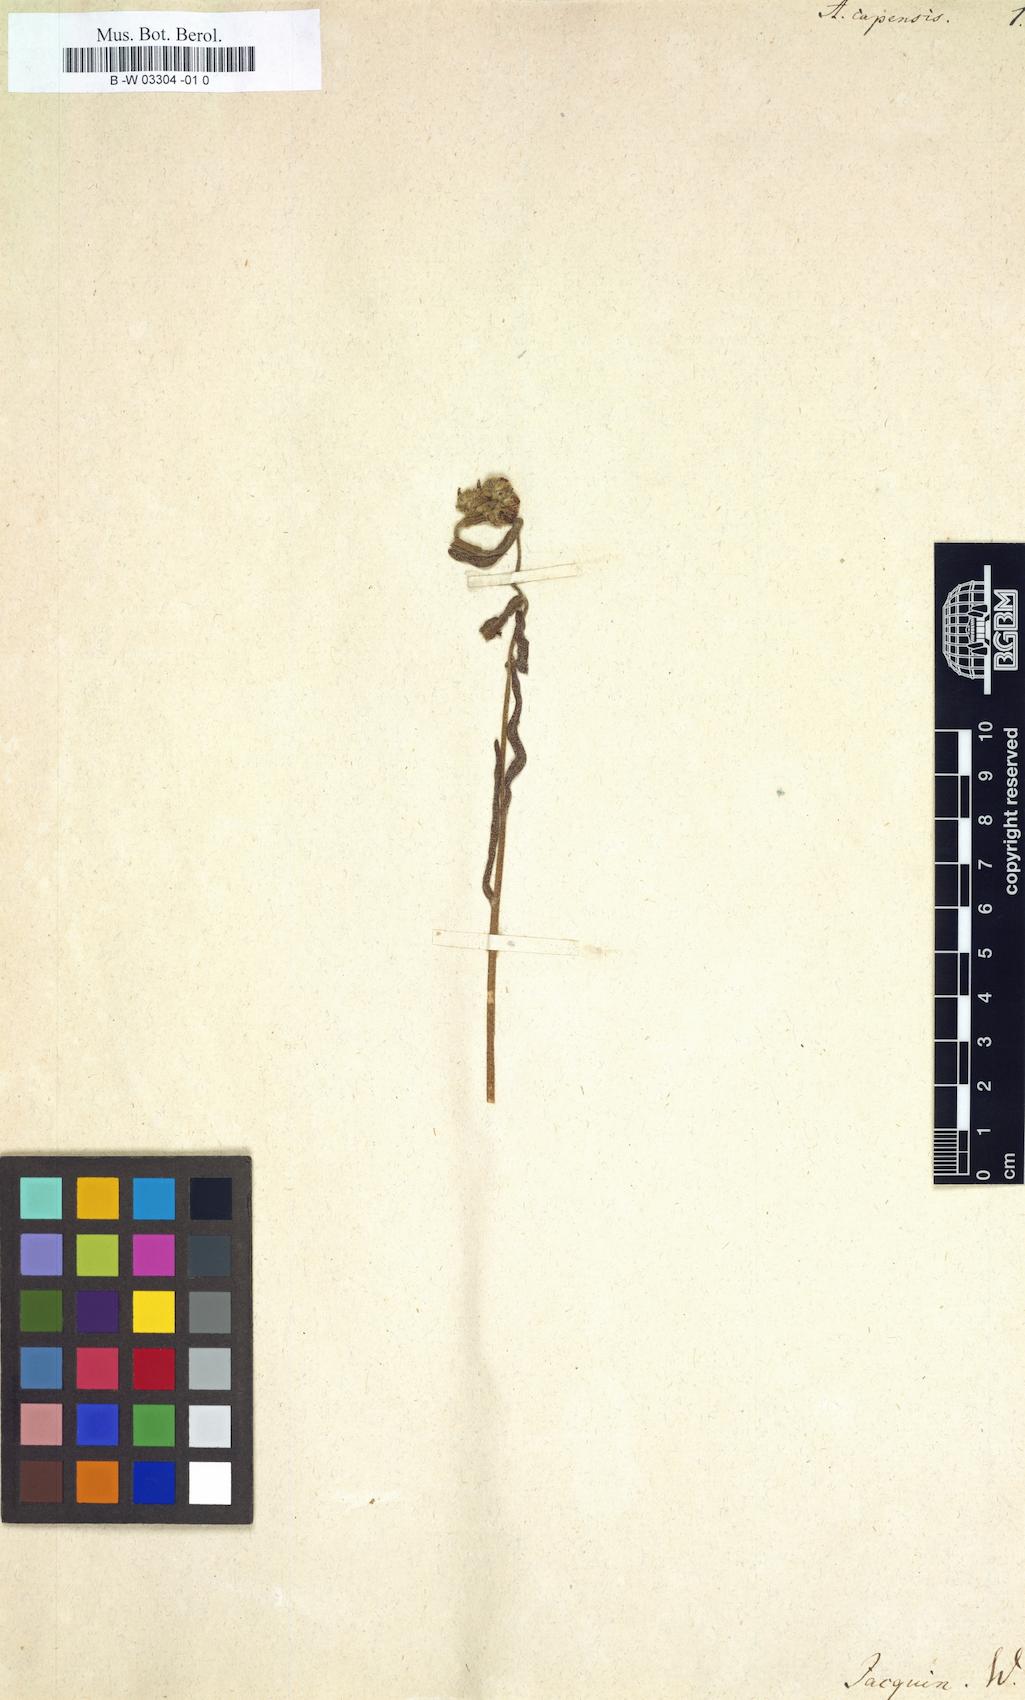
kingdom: Plantae
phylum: Tracheophyta
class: Magnoliopsida
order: Boraginales
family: Boraginaceae
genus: Anchusa
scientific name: Anchusa capensis
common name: Cape bugloss
